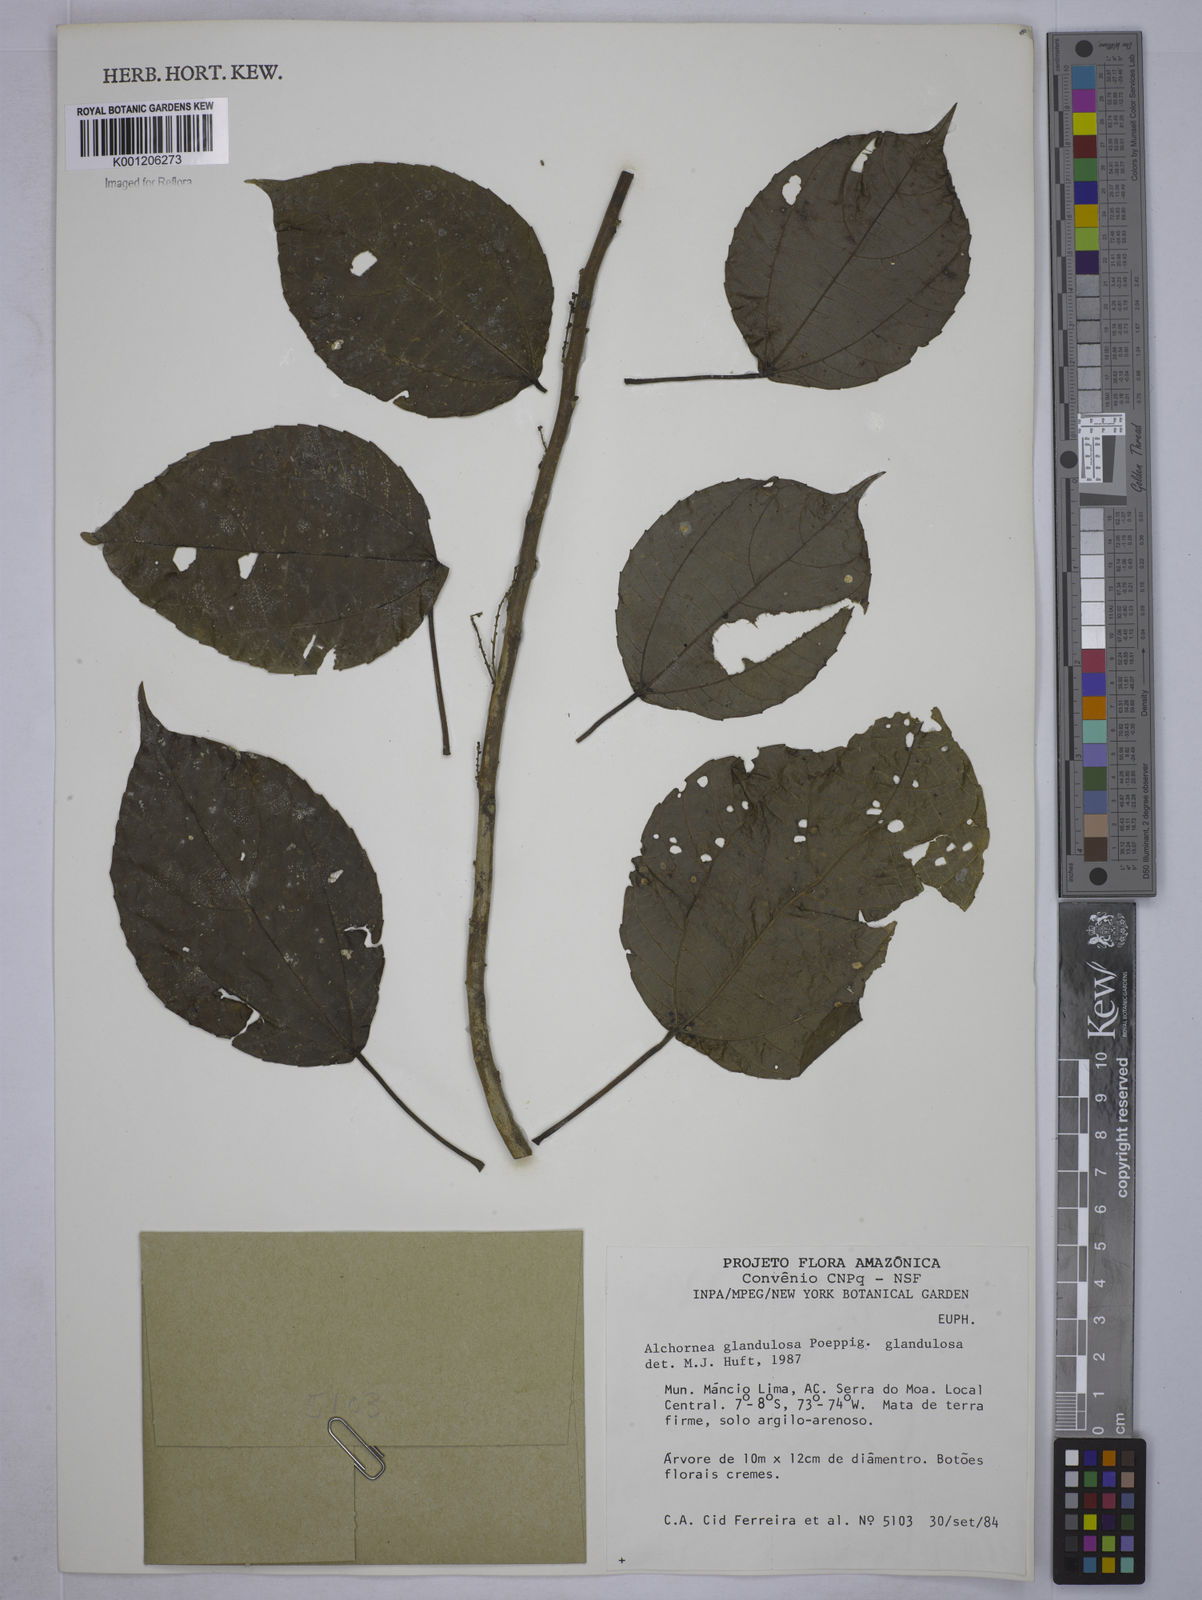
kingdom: Plantae
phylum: Tracheophyta
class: Magnoliopsida
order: Malpighiales
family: Euphorbiaceae
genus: Alchornea
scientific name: Alchornea glandulosa
